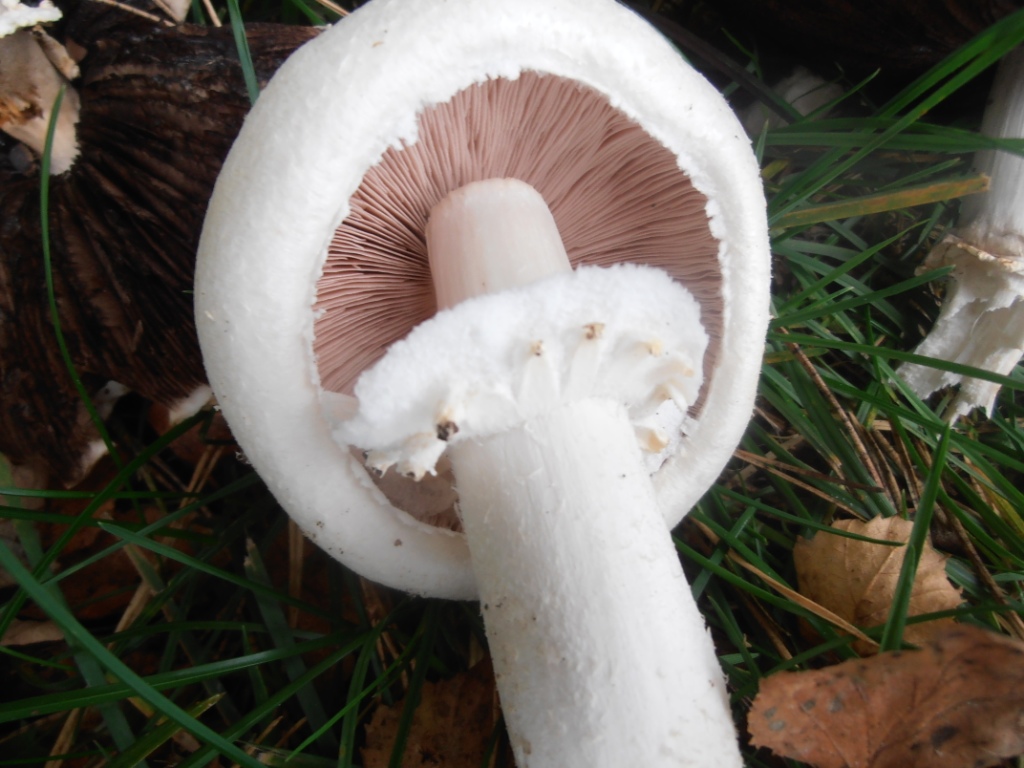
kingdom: Fungi
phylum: Basidiomycota
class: Agaricomycetes
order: Agaricales
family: Agaricaceae
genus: Agaricus
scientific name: Agaricus arvensis
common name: ager-champignon
